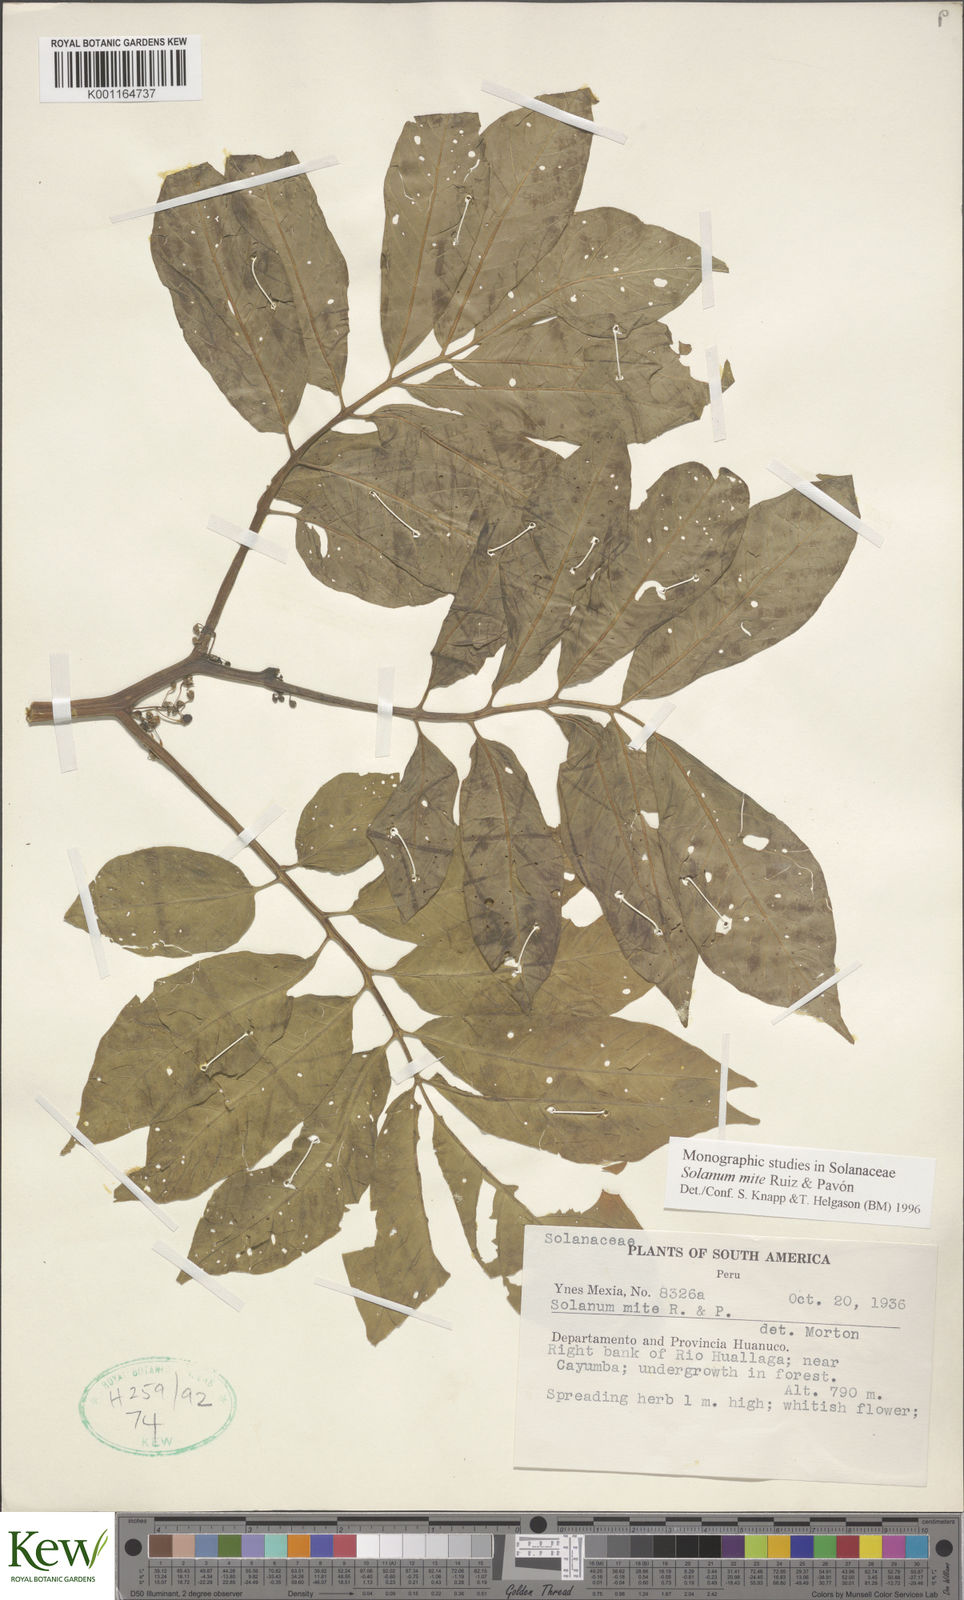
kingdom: Plantae
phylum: Tracheophyta
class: Magnoliopsida
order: Solanales
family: Solanaceae
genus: Solanum
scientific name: Solanum mite
